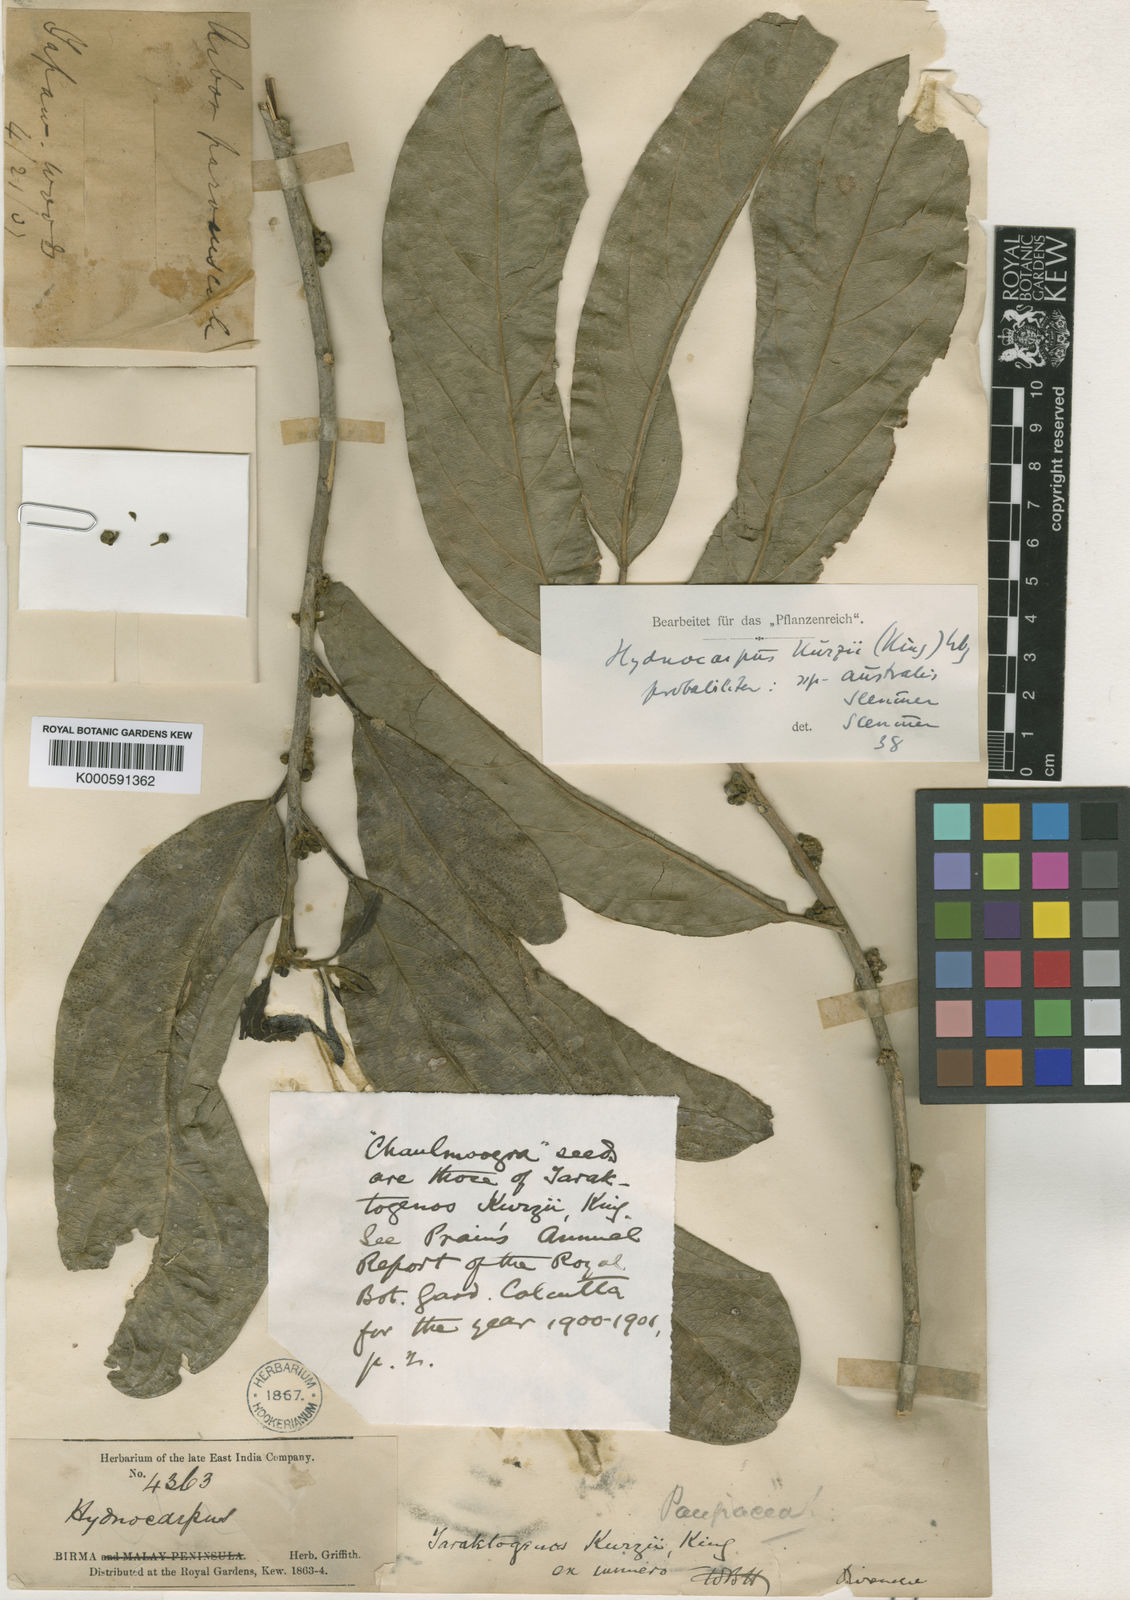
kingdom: Plantae
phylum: Tracheophyta
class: Magnoliopsida
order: Malpighiales
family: Achariaceae
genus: Hydnocarpus
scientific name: Hydnocarpus kurzii
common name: Chaulmoogra
